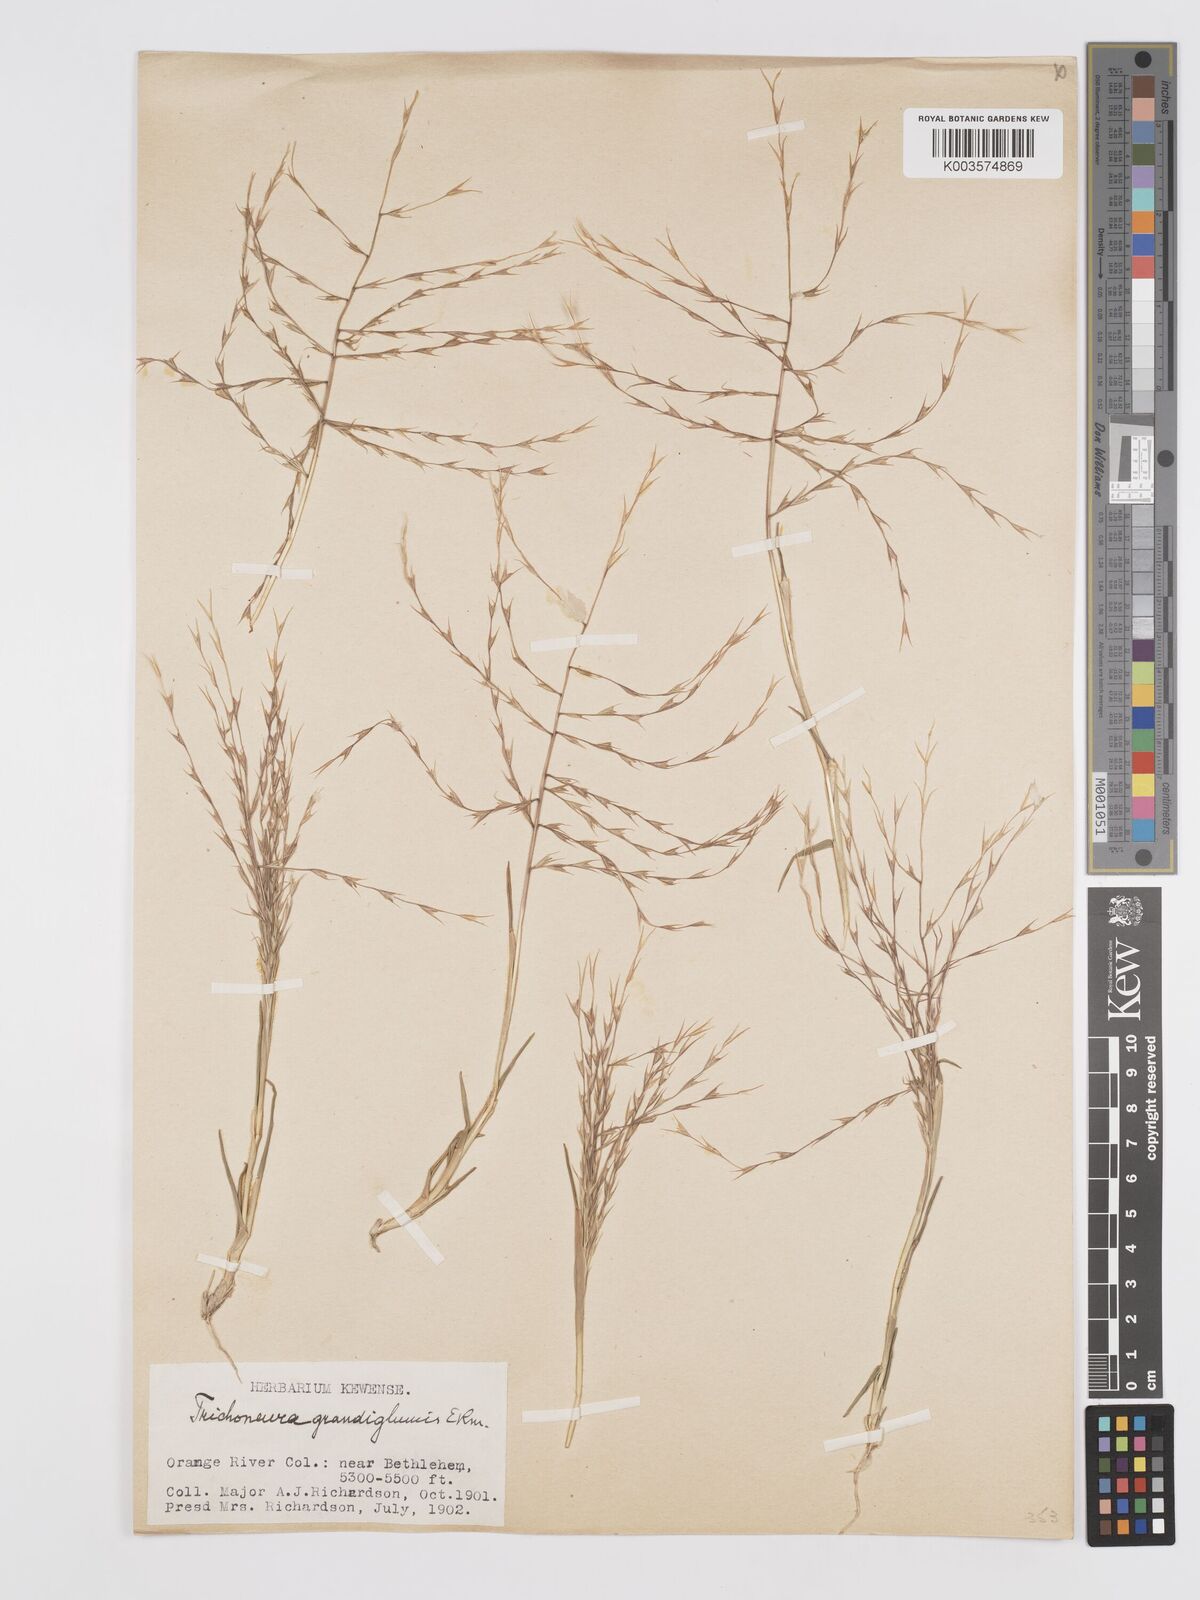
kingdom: Plantae
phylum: Tracheophyta
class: Liliopsida
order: Poales
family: Poaceae
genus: Trichoneura
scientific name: Trichoneura grandiglumis
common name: Rolling grass
